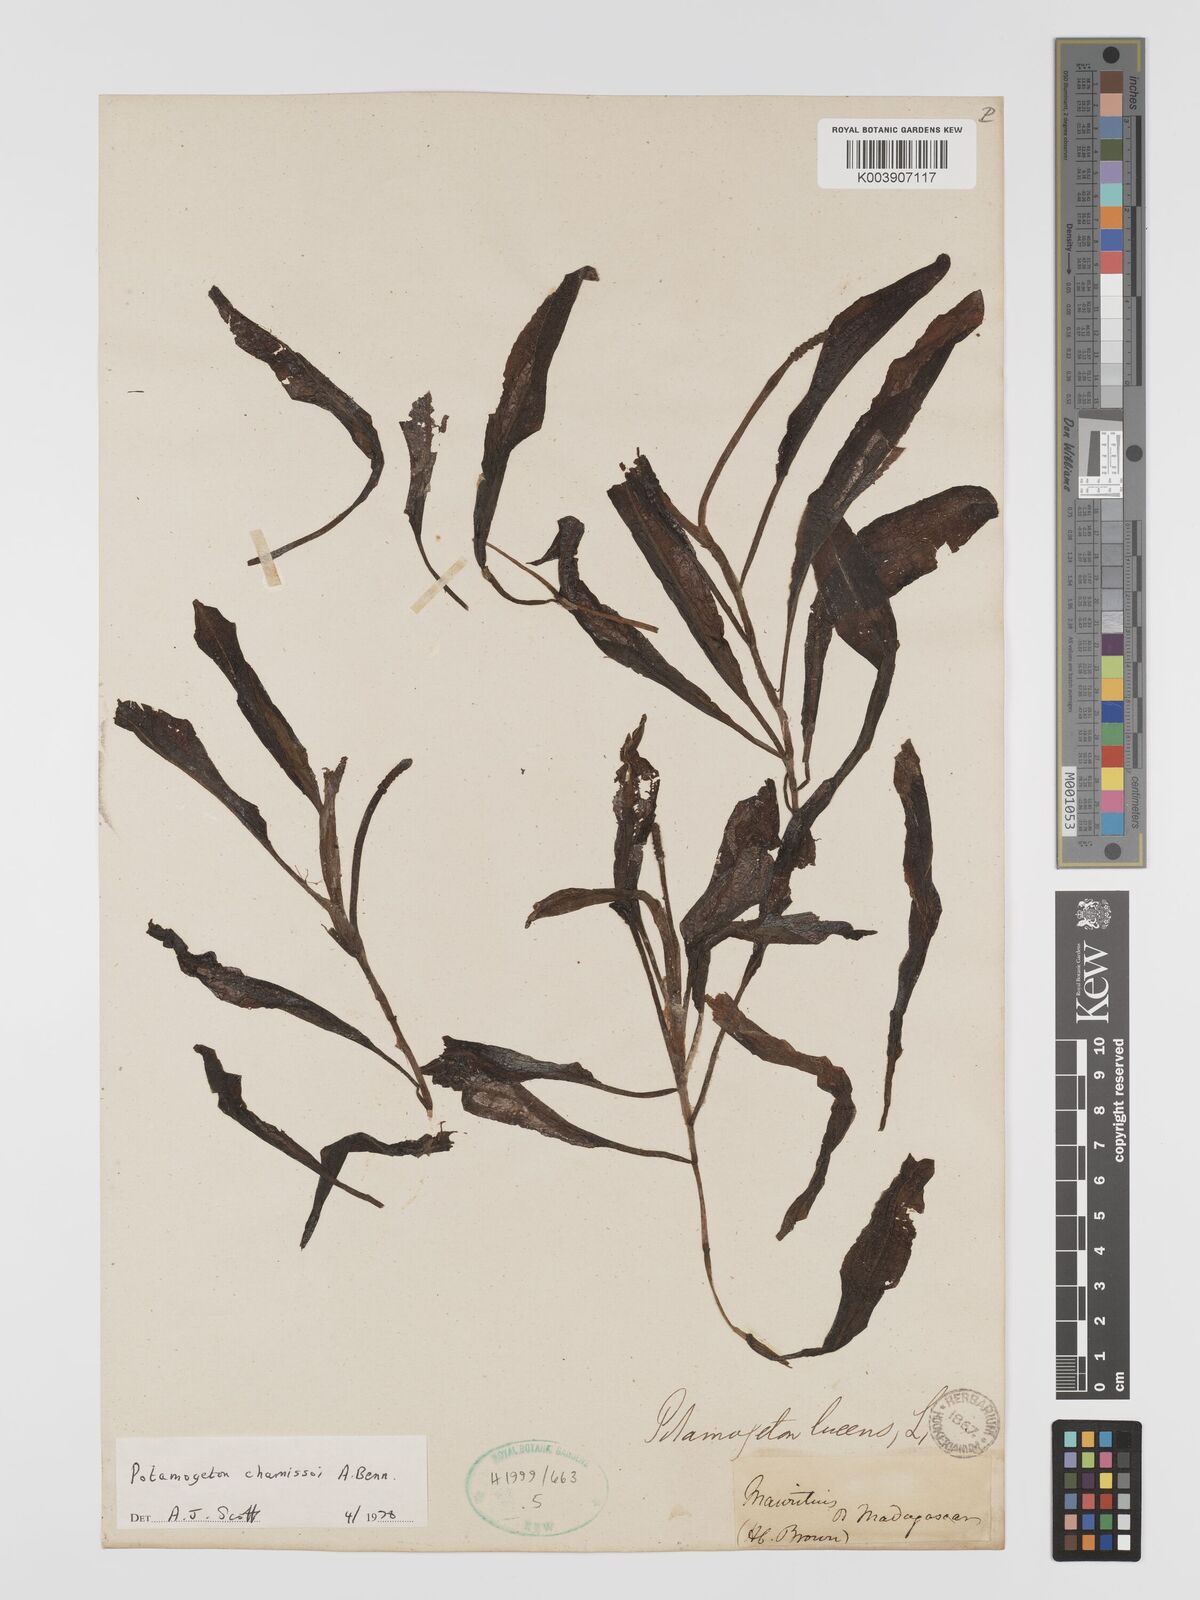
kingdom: Plantae
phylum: Tracheophyta
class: Liliopsida
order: Alismatales
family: Potamogetonaceae
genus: Potamogeton
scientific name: Potamogeton chamissoi
